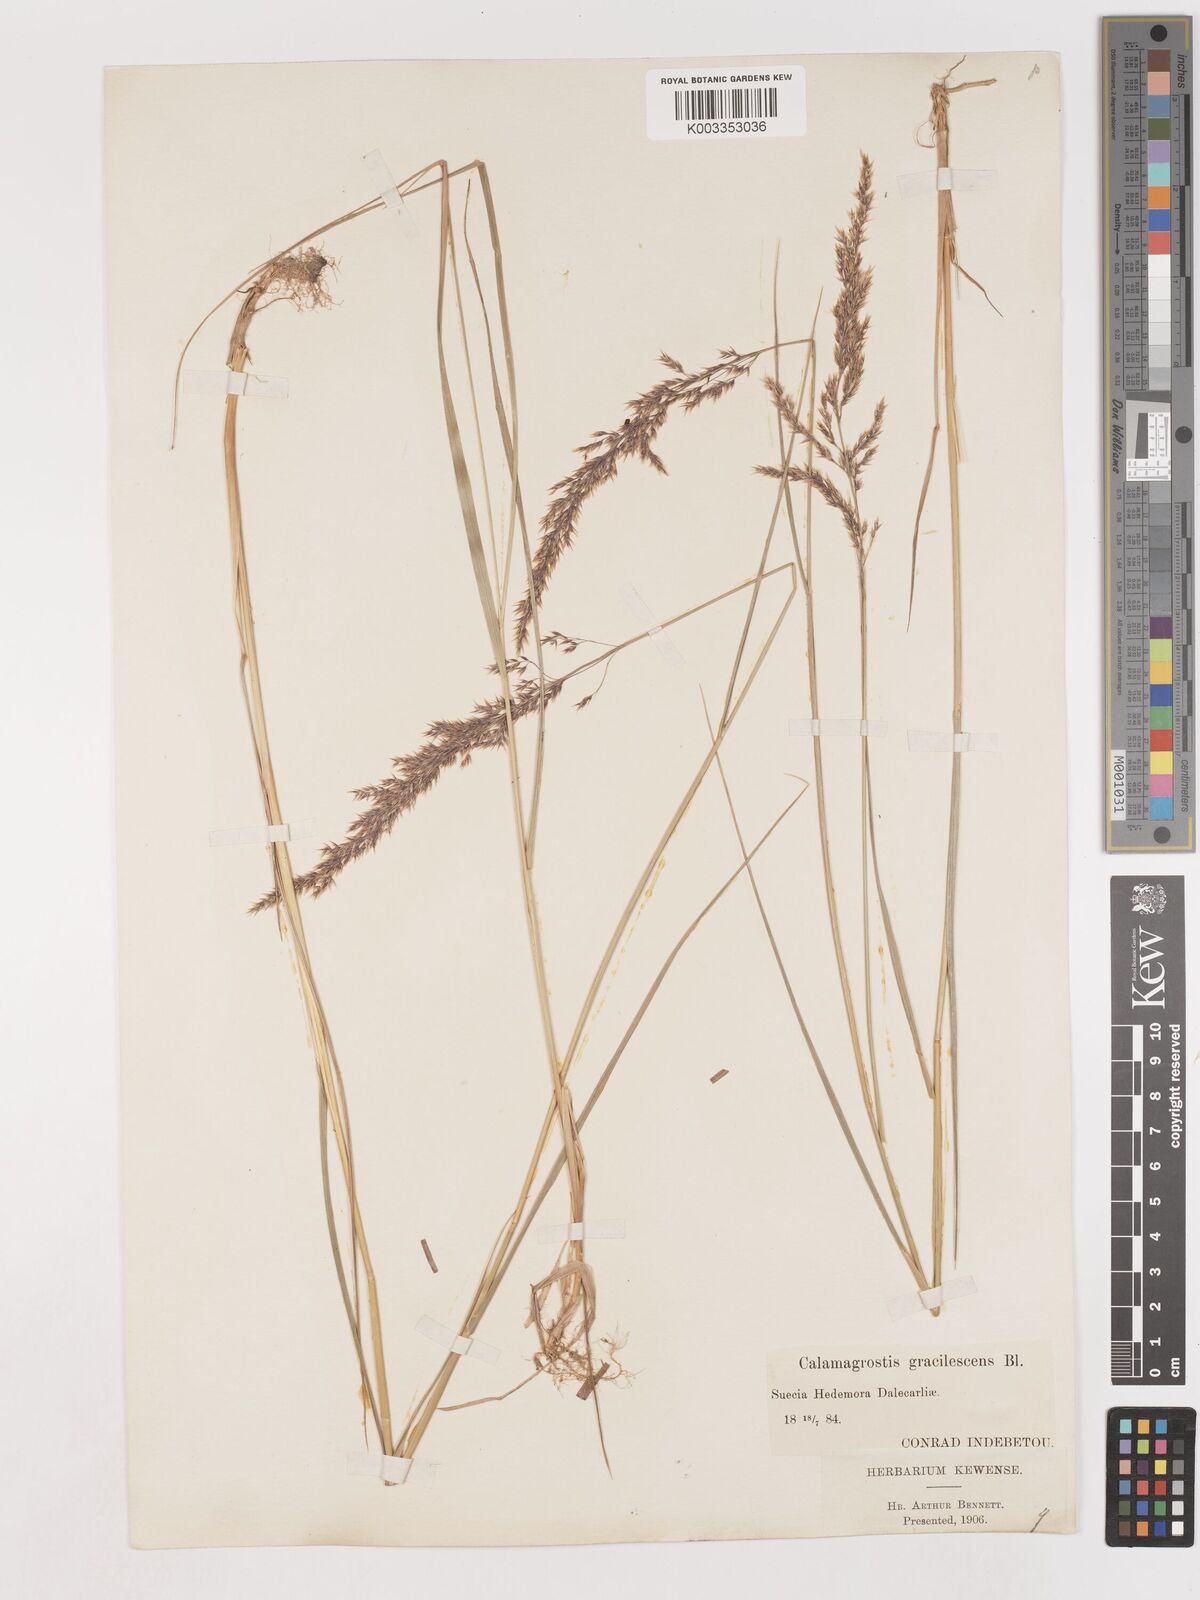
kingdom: Plantae
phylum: Tracheophyta
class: Liliopsida
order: Poales
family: Poaceae
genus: Calamagrostis
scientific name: Calamagrostis canescens
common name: Purple small-reed
